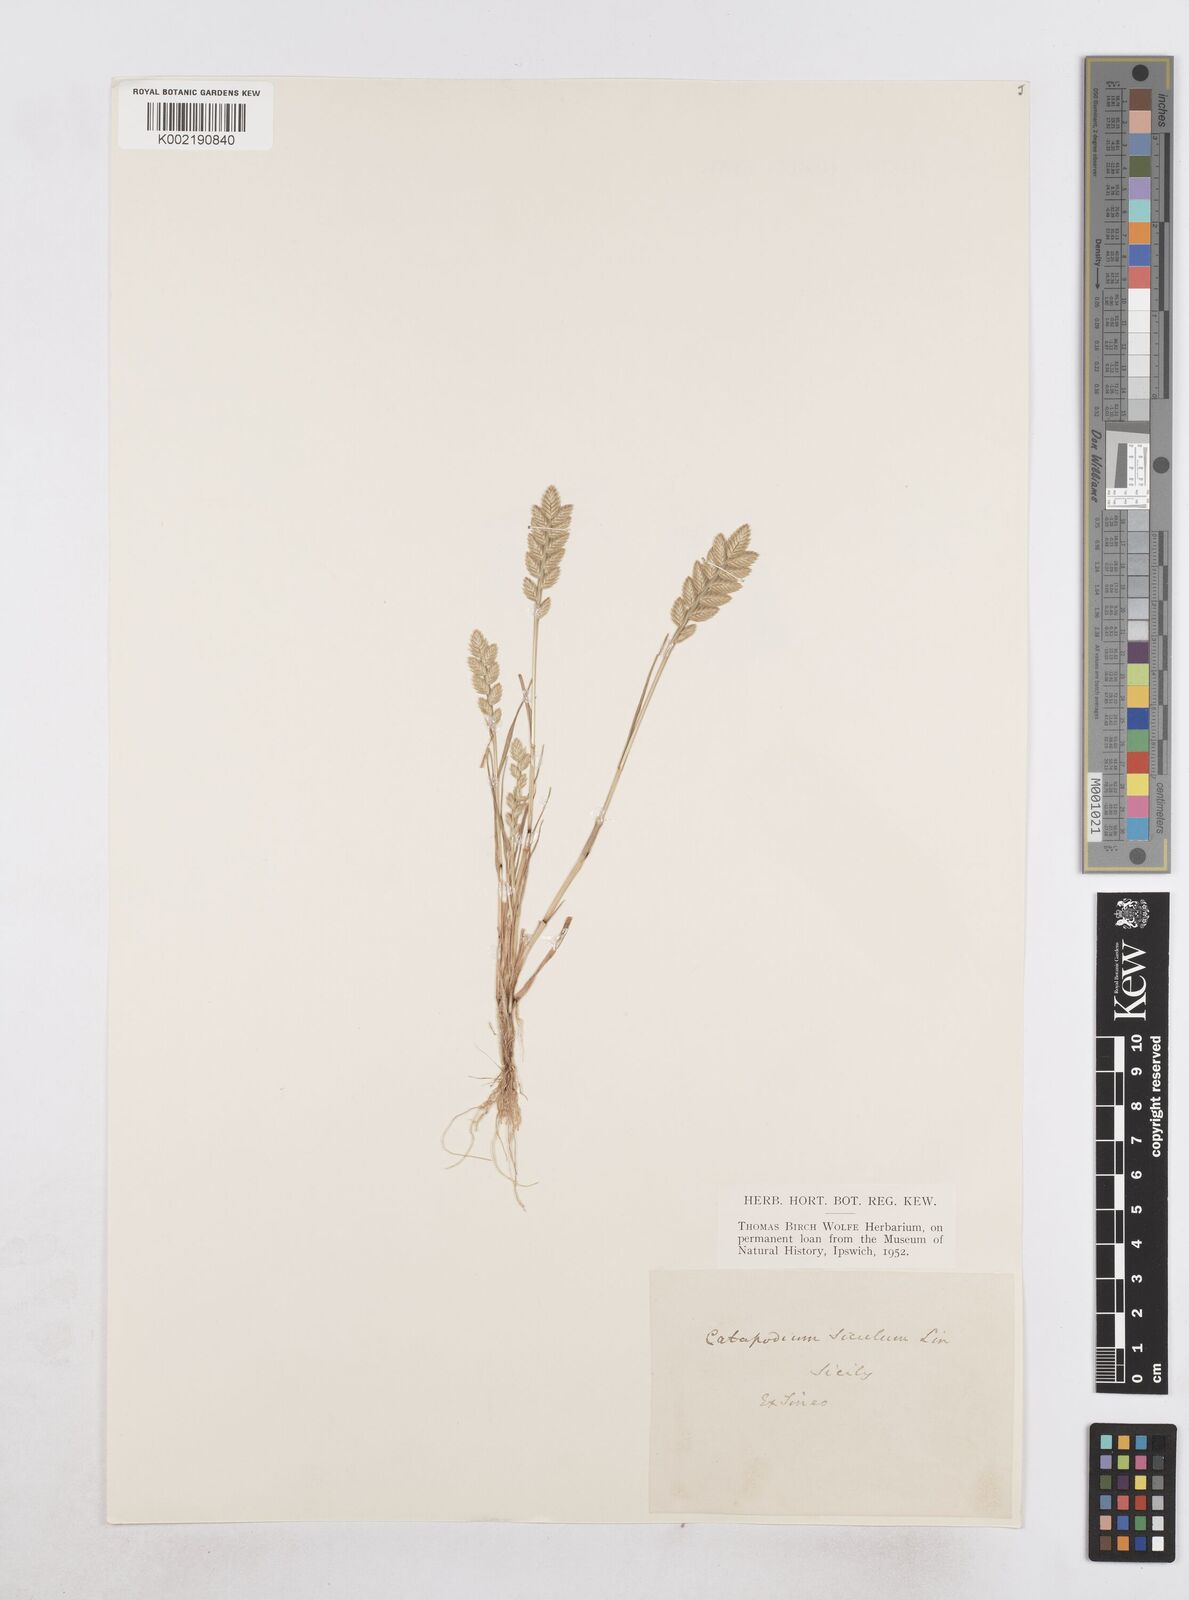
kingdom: Plantae
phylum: Tracheophyta
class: Liliopsida
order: Poales
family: Poaceae
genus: Desmazeria
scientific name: Desmazeria sicula
